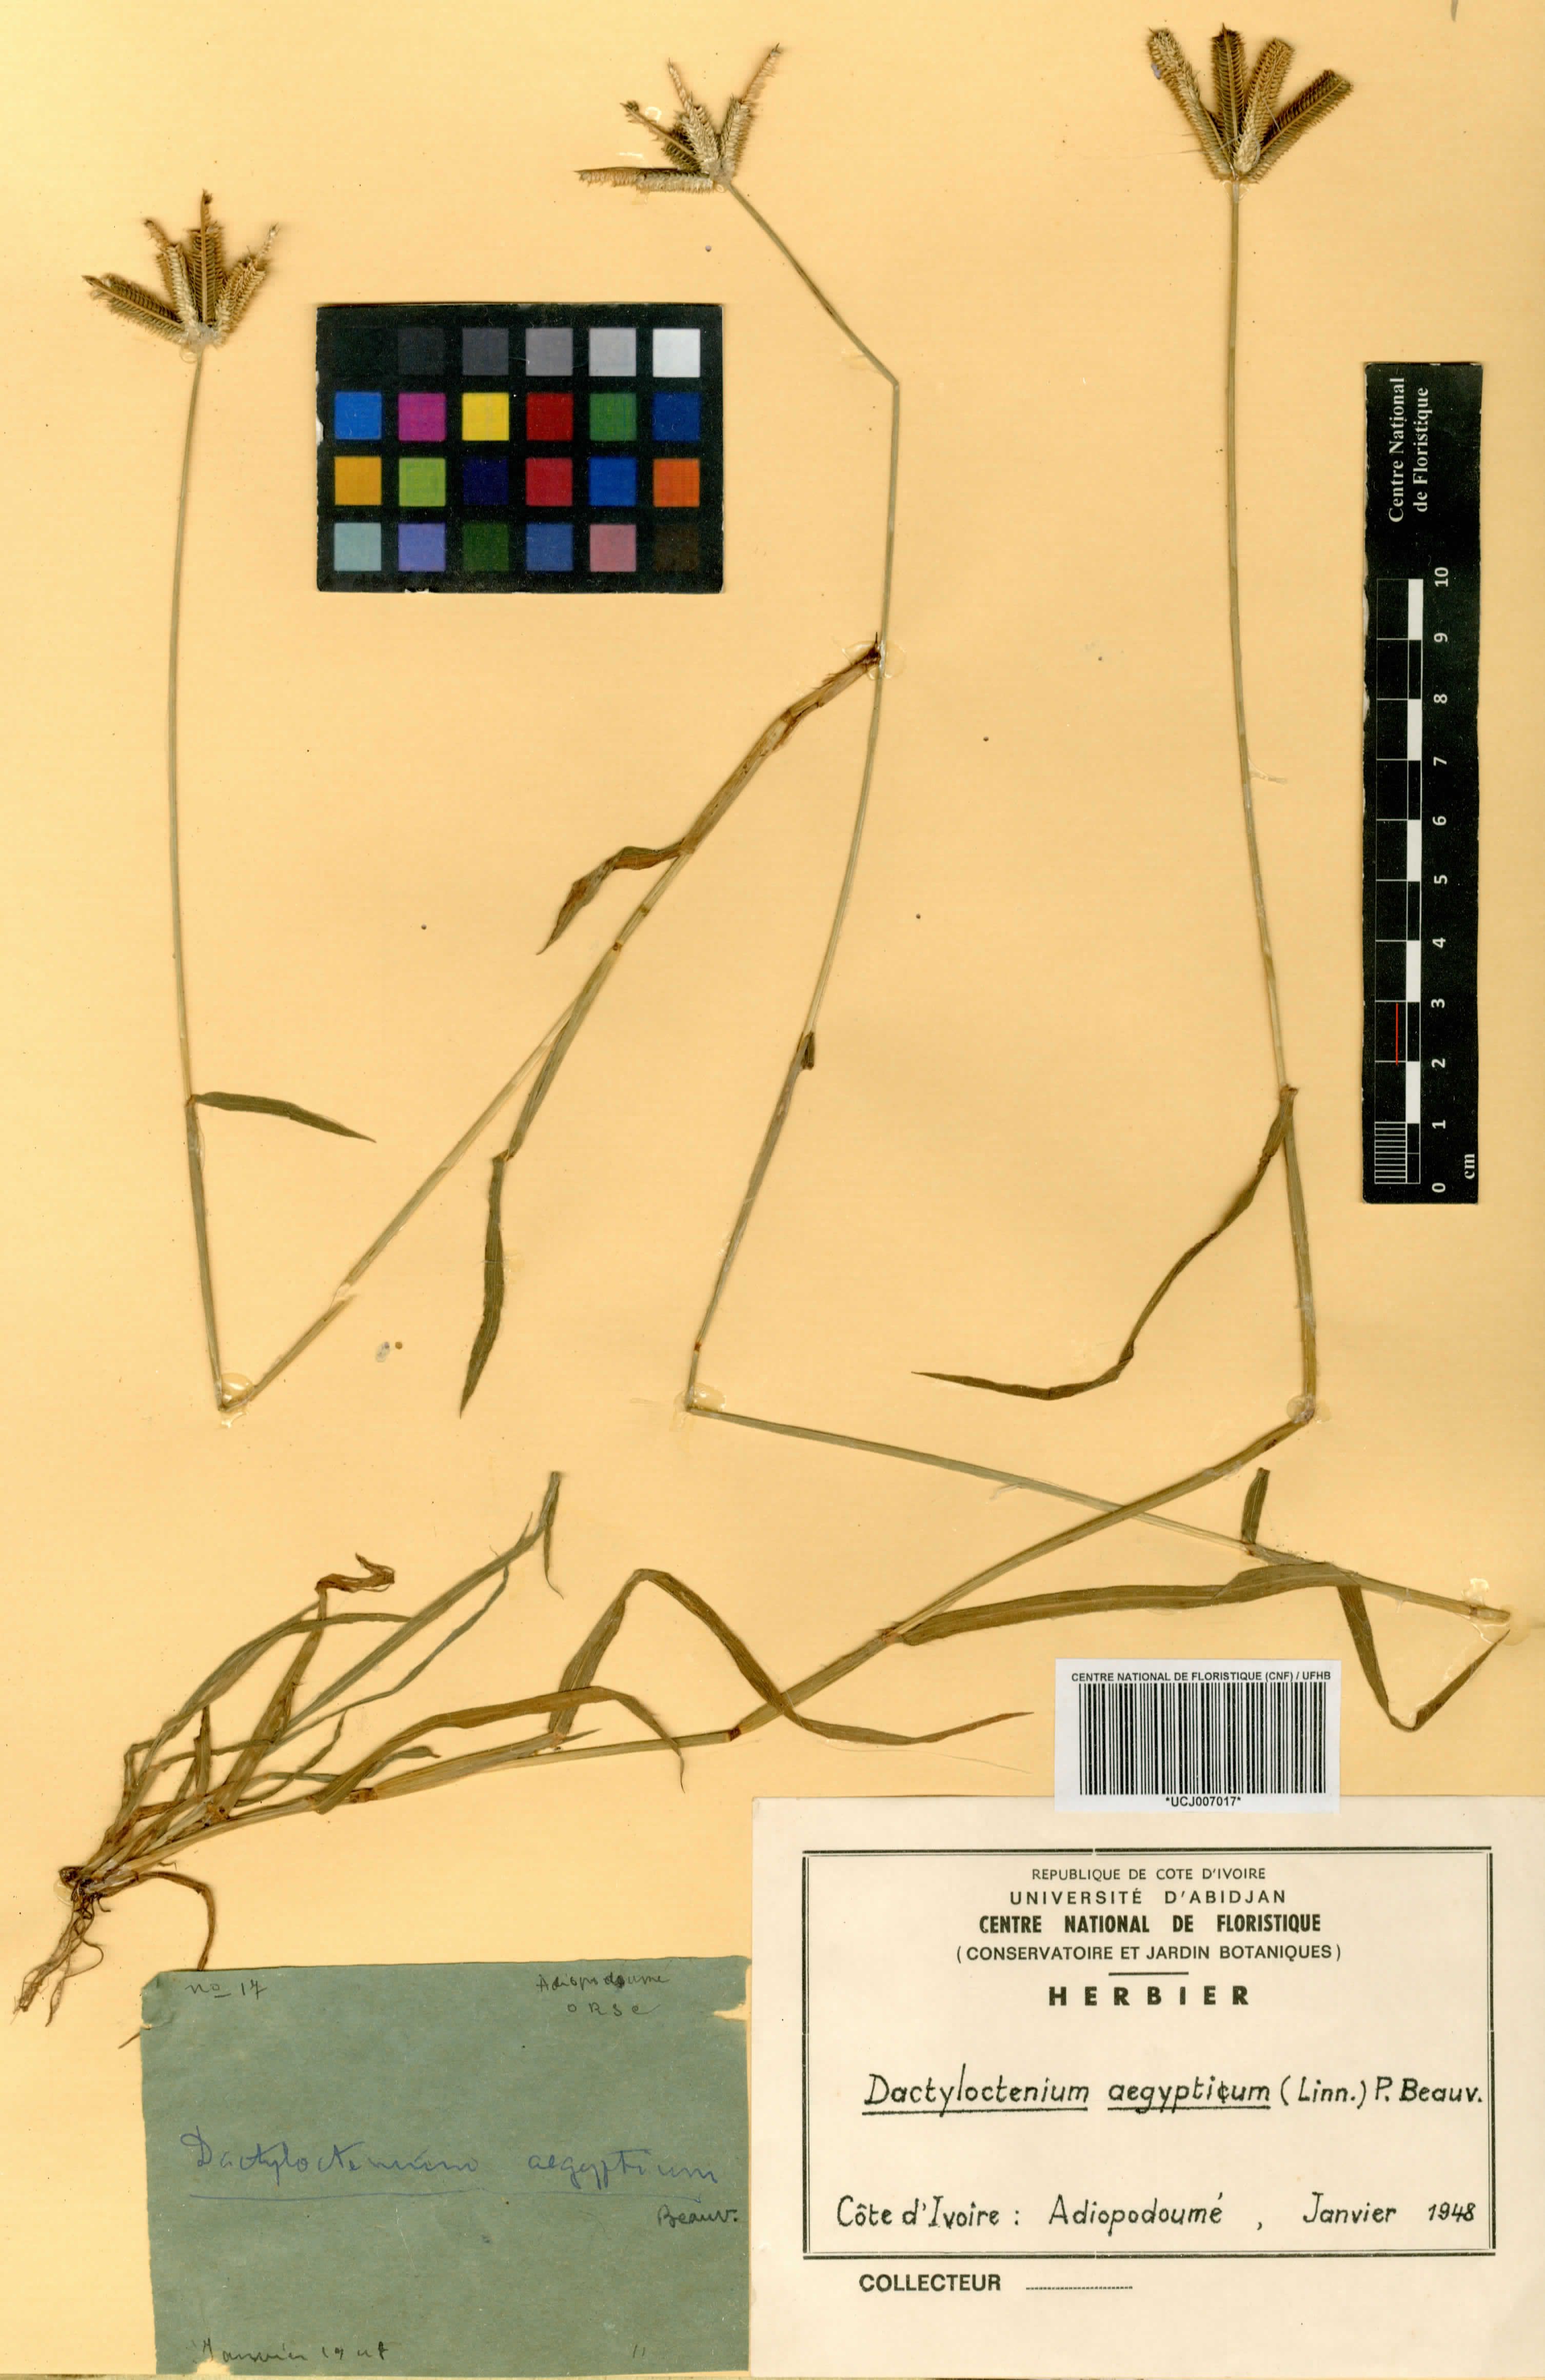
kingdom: Plantae
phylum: Tracheophyta
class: Liliopsida
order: Poales
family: Poaceae
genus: Dactyloctenium
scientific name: Dactyloctenium aegyptium
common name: Egyptian grass
